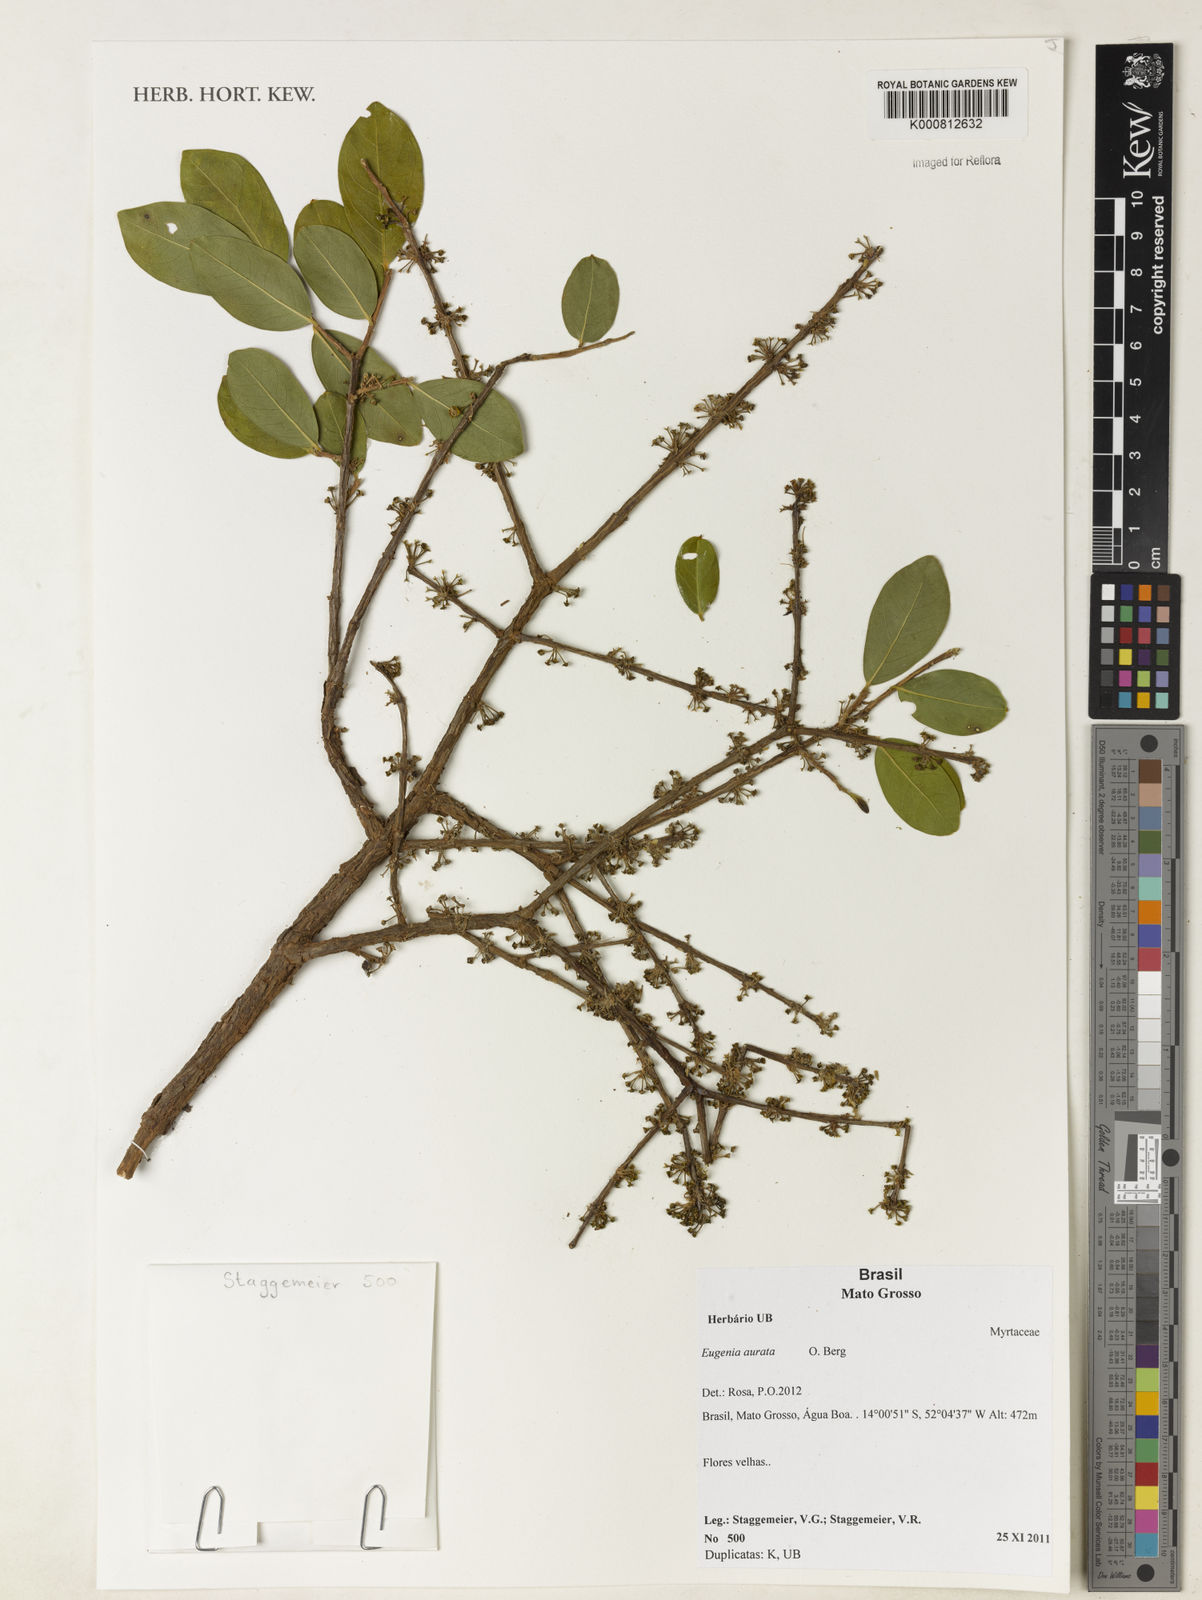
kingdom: Plantae
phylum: Tracheophyta
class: Magnoliopsida
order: Myrtales
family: Myrtaceae
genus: Eugenia
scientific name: Eugenia aurata
